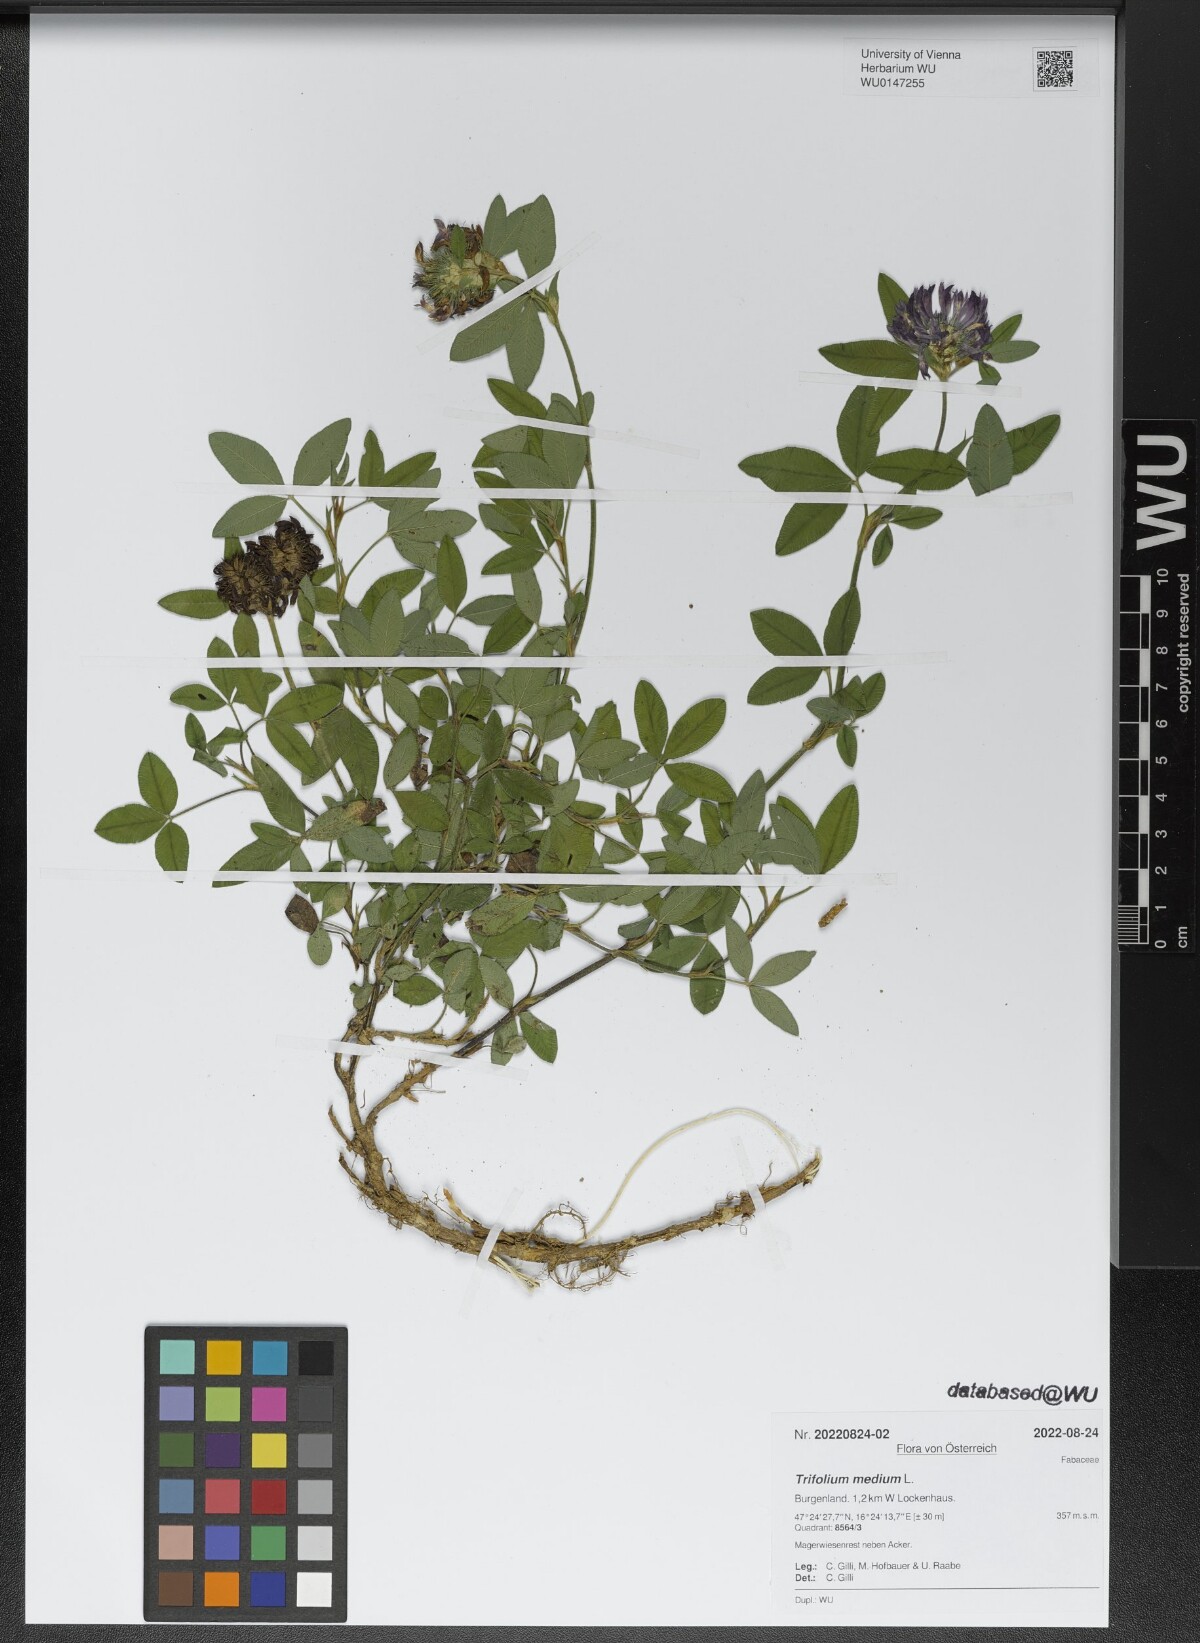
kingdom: Plantae
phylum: Tracheophyta
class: Magnoliopsida
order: Fabales
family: Fabaceae
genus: Trifolium
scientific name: Trifolium medium
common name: Zigzag clover
